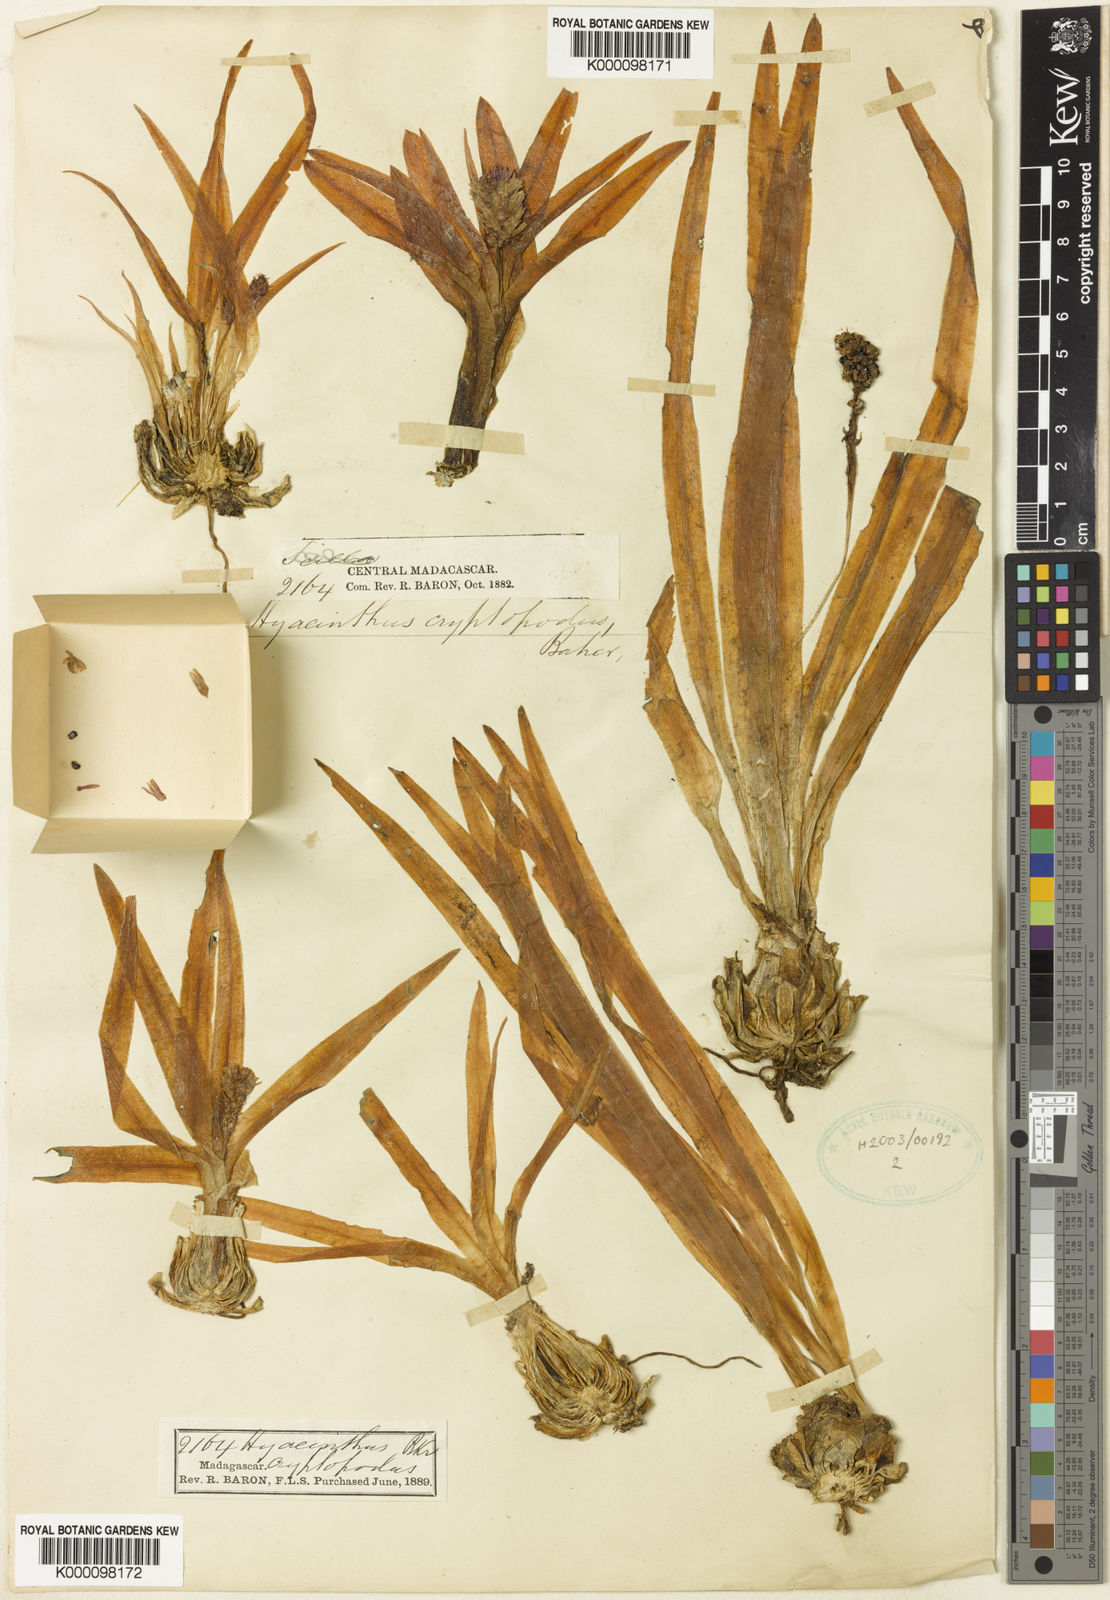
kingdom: Plantae
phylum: Tracheophyta
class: Liliopsida
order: Asparagales
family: Asparagaceae
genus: Drimia
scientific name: Drimia cryptopoda
